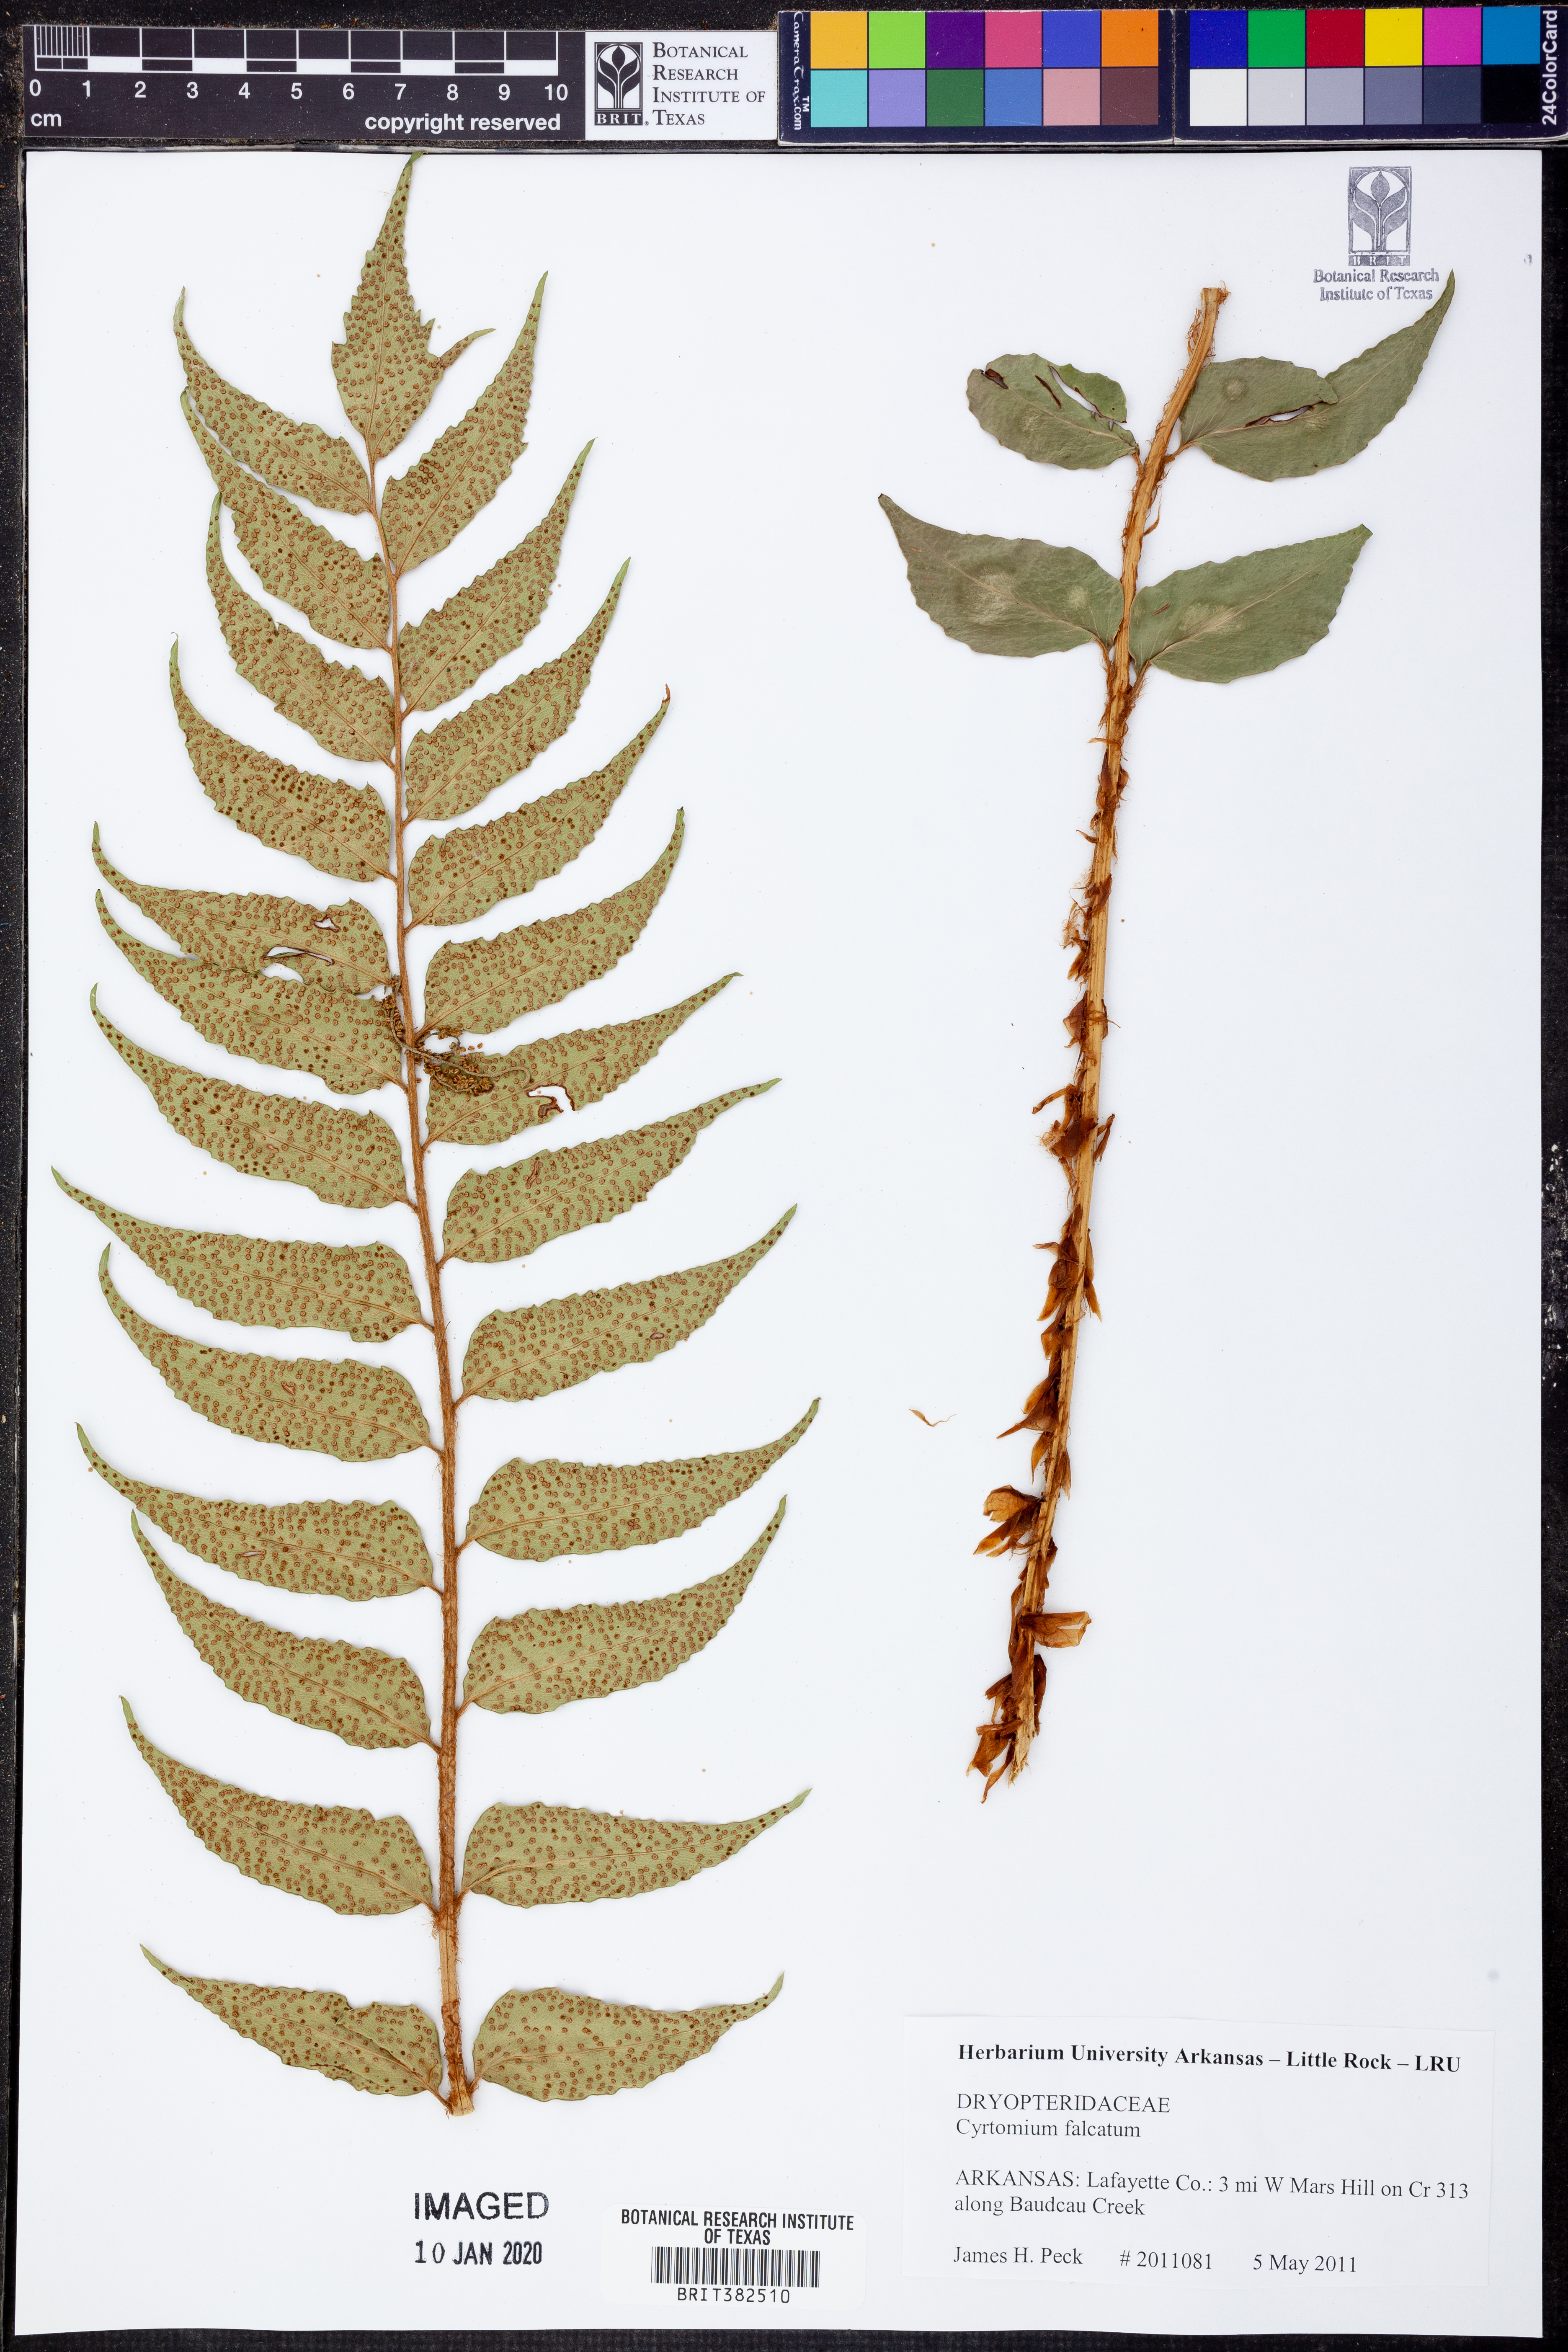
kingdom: Plantae
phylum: Tracheophyta
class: Polypodiopsida
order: Polypodiales
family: Dryopteridaceae
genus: Cyrtomium
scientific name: Cyrtomium falcatum
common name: House holly-fern
